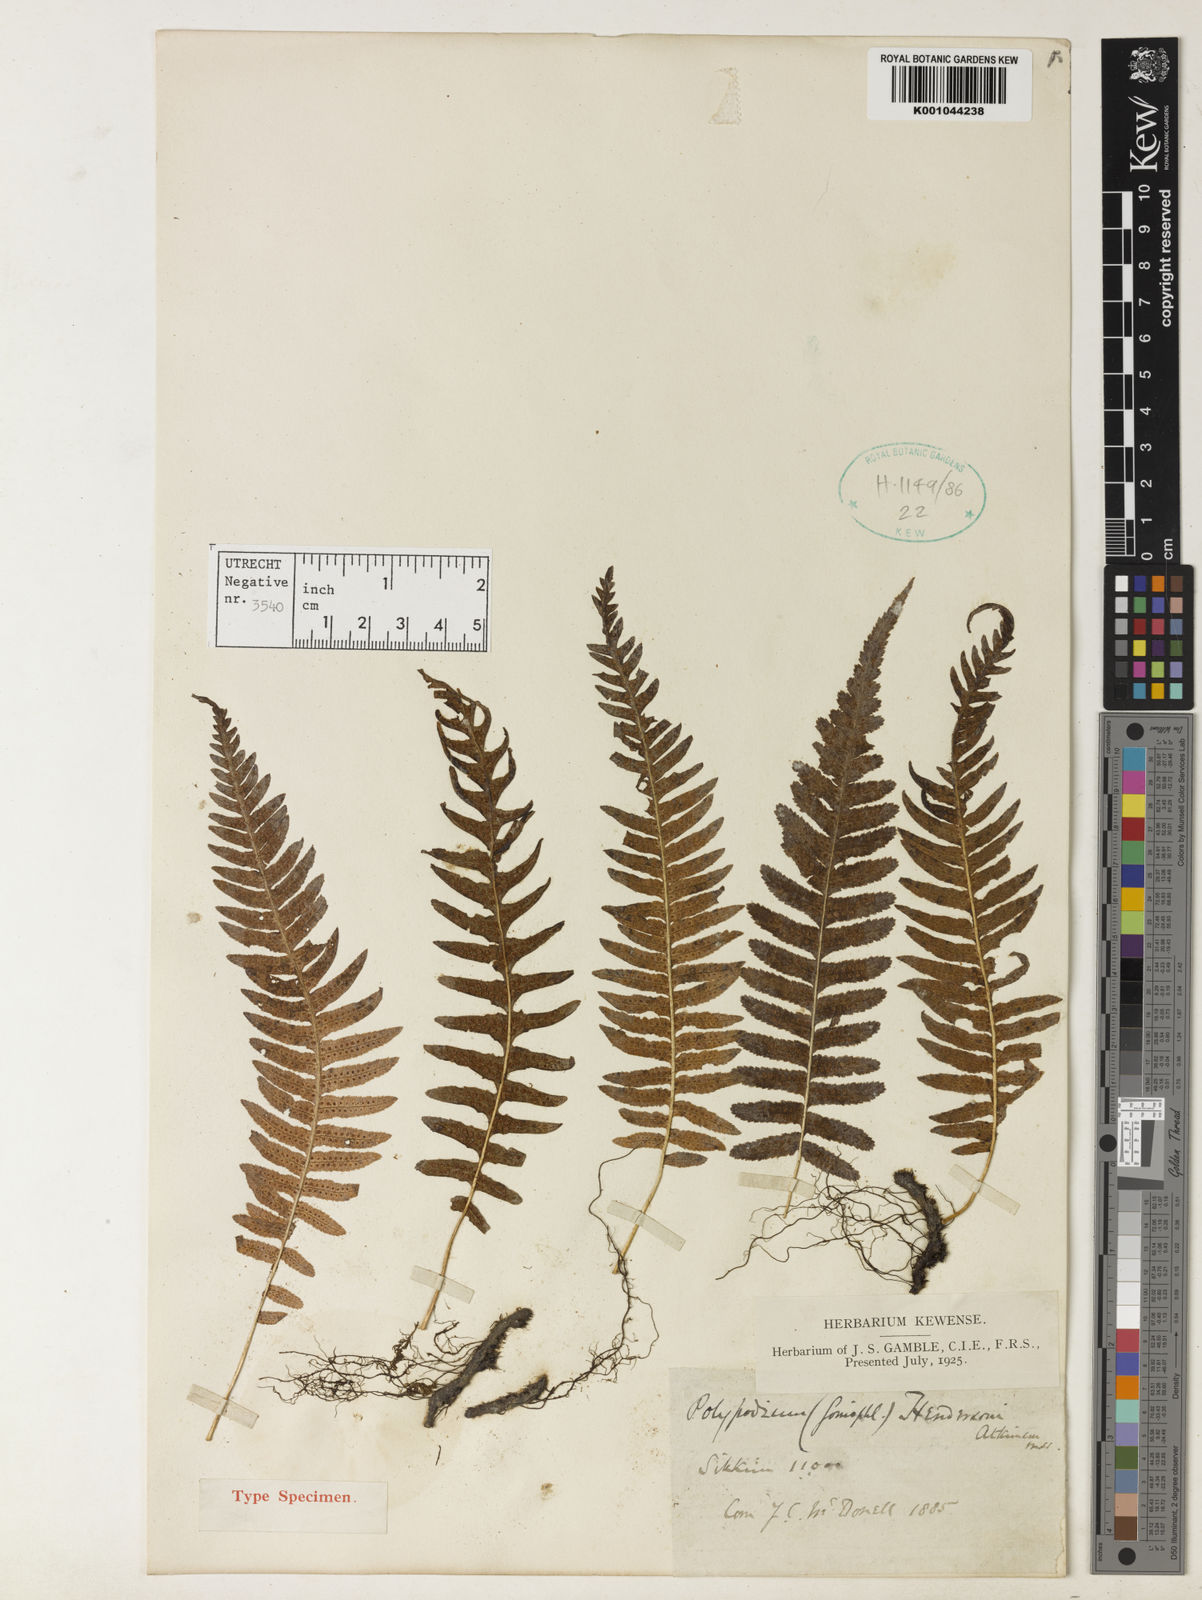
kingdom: Plantae
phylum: Tracheophyta
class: Polypodiopsida
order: Polypodiales
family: Polypodiaceae
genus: Goniophlebium
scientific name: Goniophlebium hendersonii
